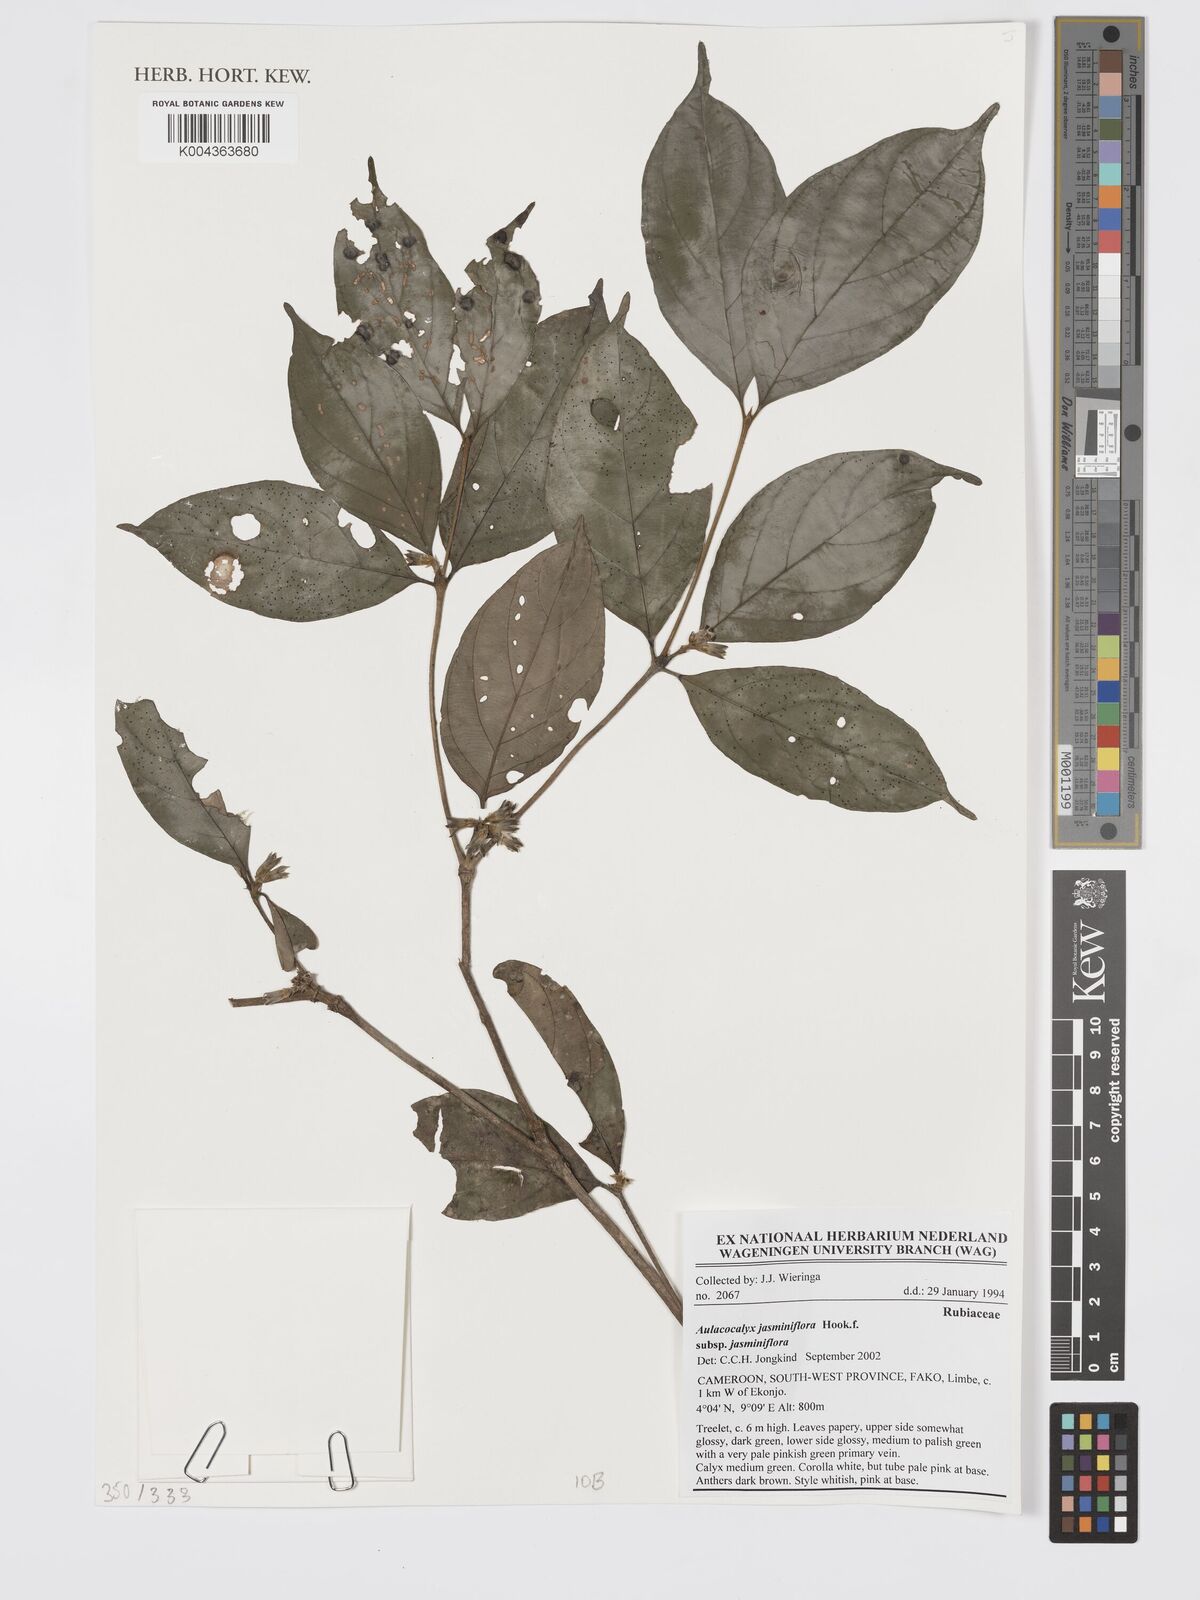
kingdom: Plantae
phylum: Tracheophyta
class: Magnoliopsida
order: Gentianales
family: Rubiaceae
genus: Aulacocalyx
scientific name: Aulacocalyx jasminiflora
